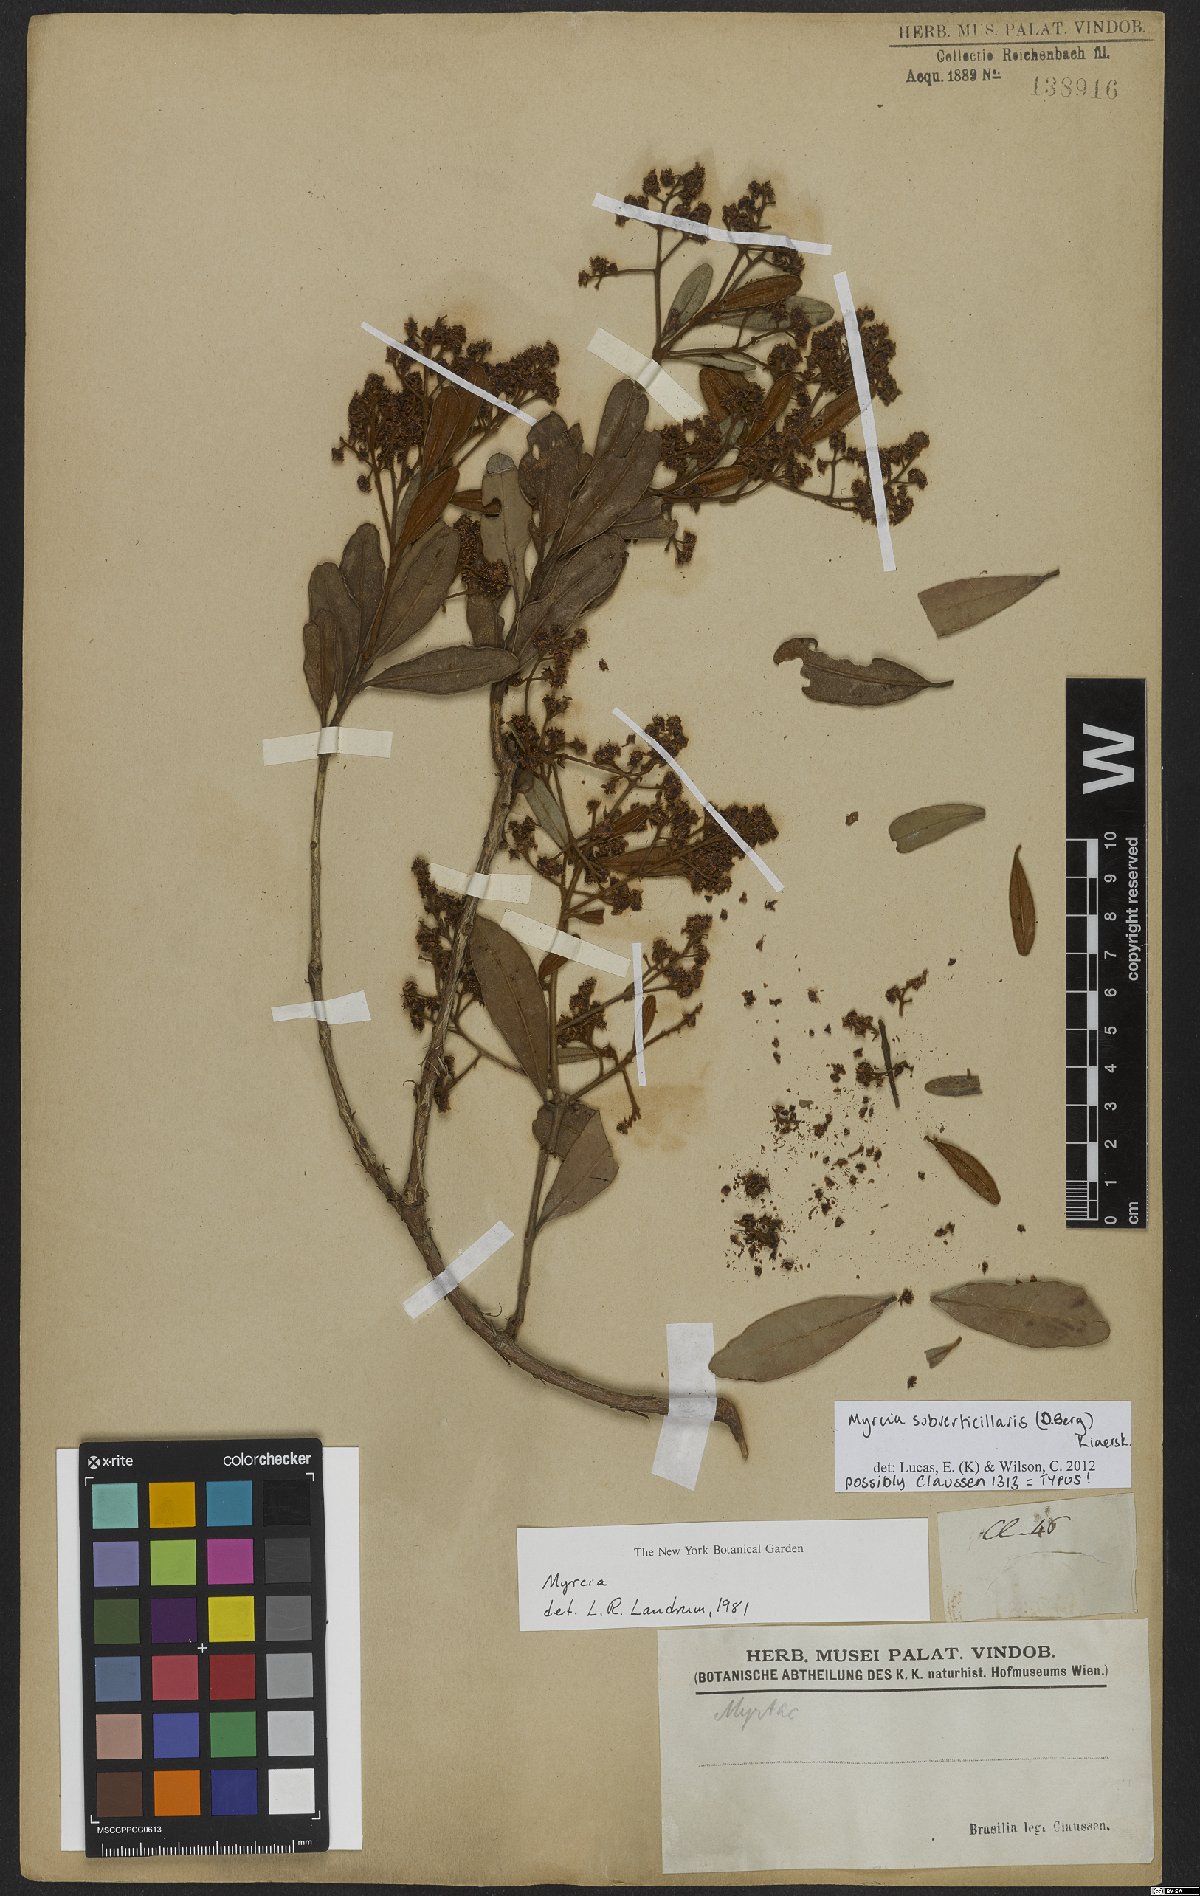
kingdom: Plantae
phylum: Tracheophyta
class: Magnoliopsida
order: Myrtales
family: Myrtaceae
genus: Myrcia
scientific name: Myrcia subverticillaris
